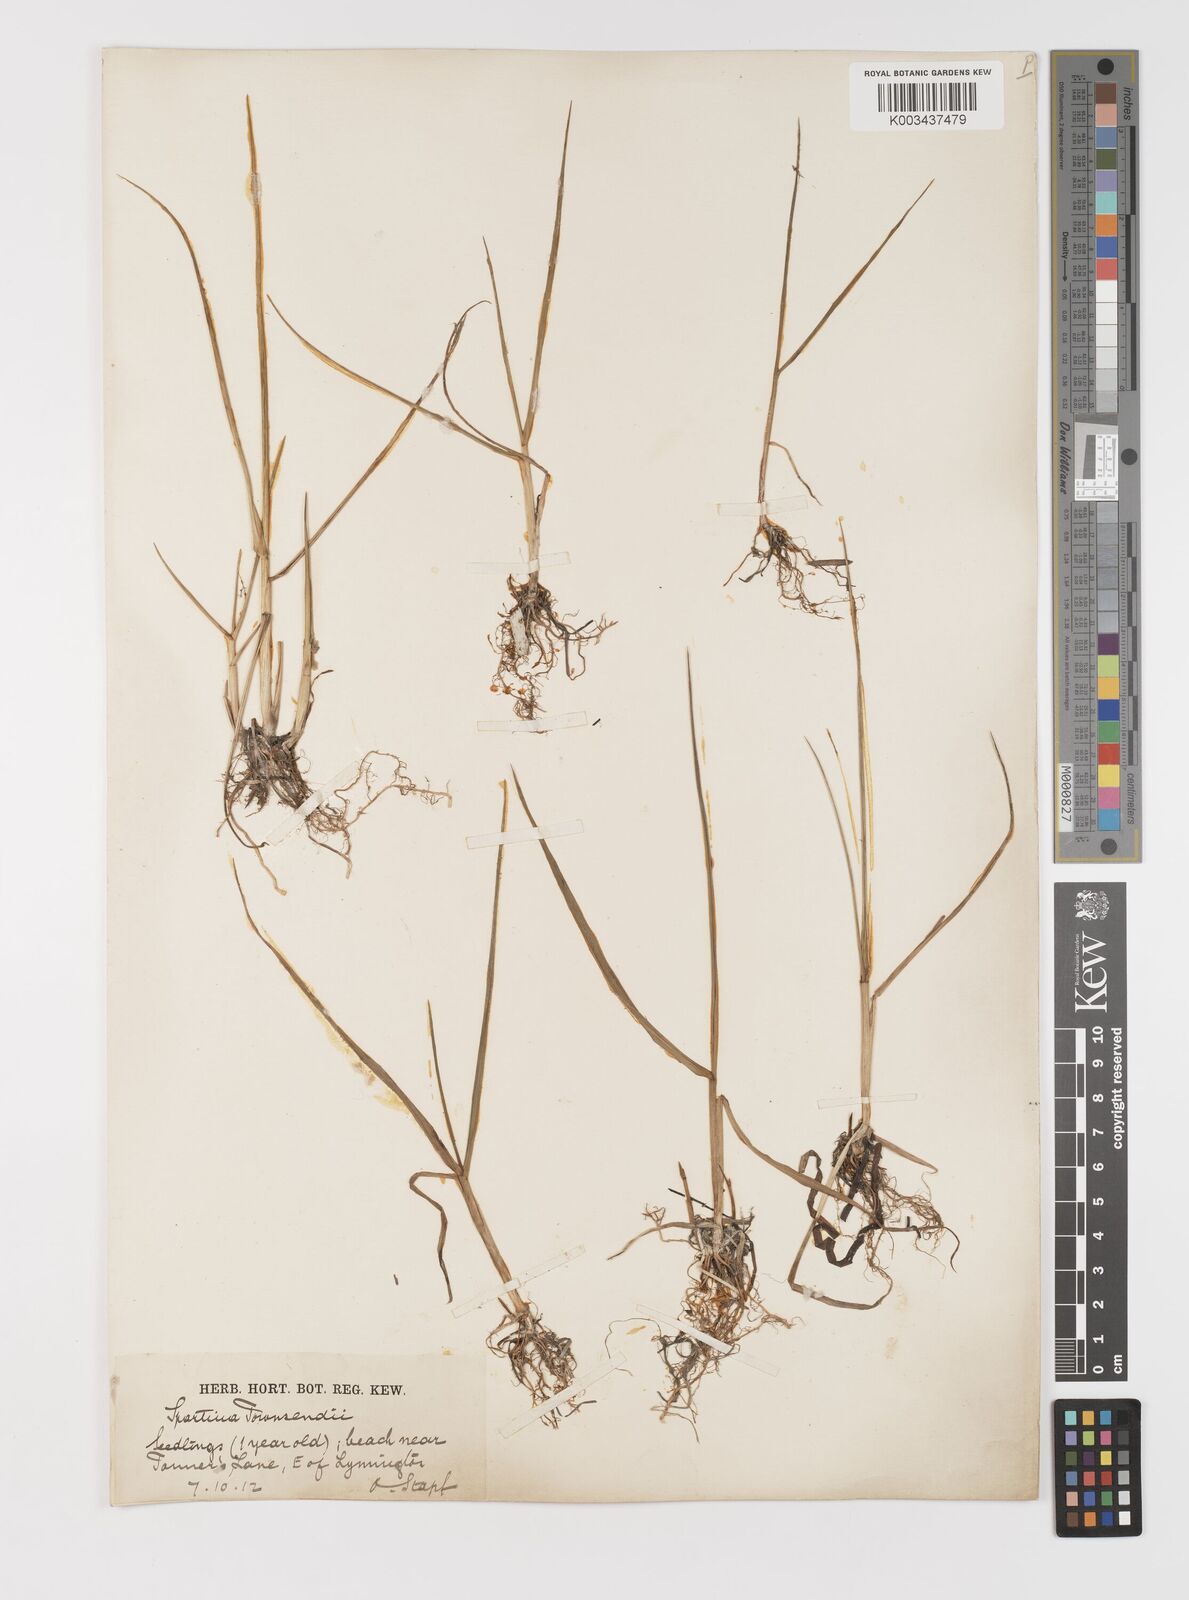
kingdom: Plantae
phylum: Tracheophyta
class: Liliopsida
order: Poales
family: Poaceae
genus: Sporobolus
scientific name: Sporobolus anglicus
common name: English cordgrass
